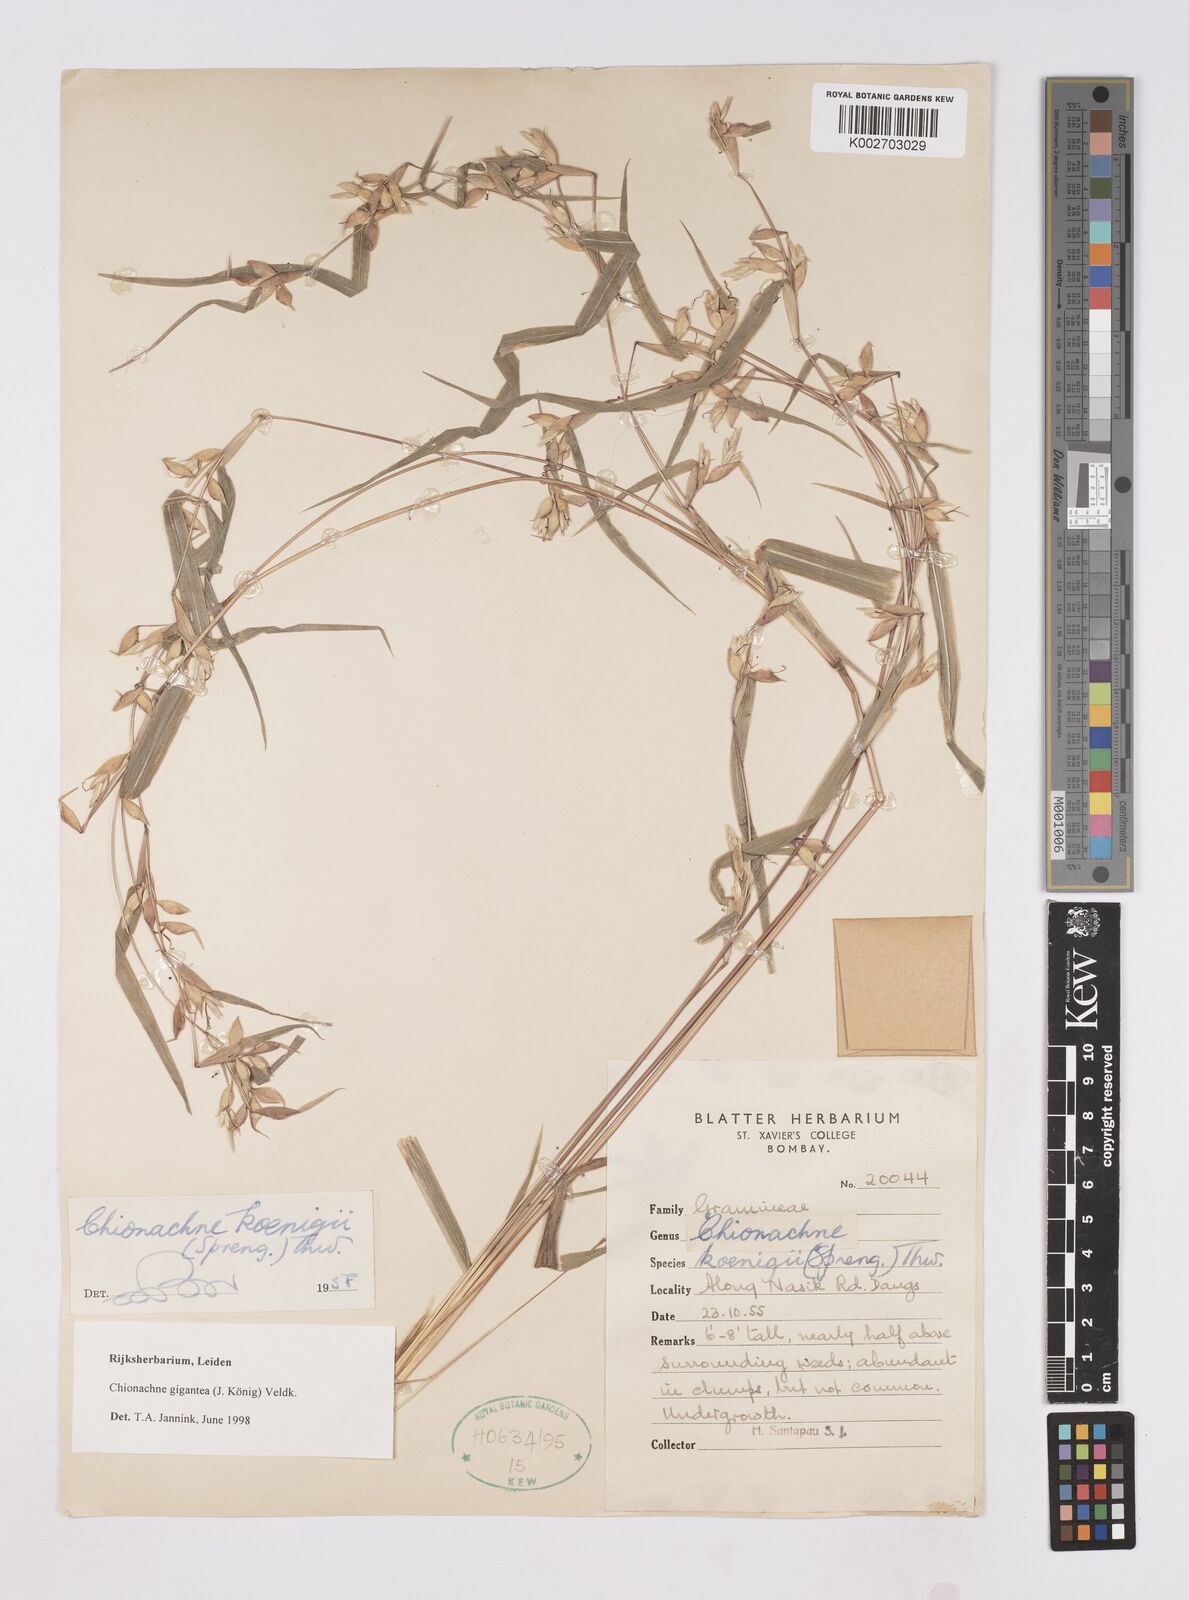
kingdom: Plantae
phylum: Tracheophyta
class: Liliopsida
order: Poales
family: Poaceae
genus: Polytoca
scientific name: Polytoca gigantea
